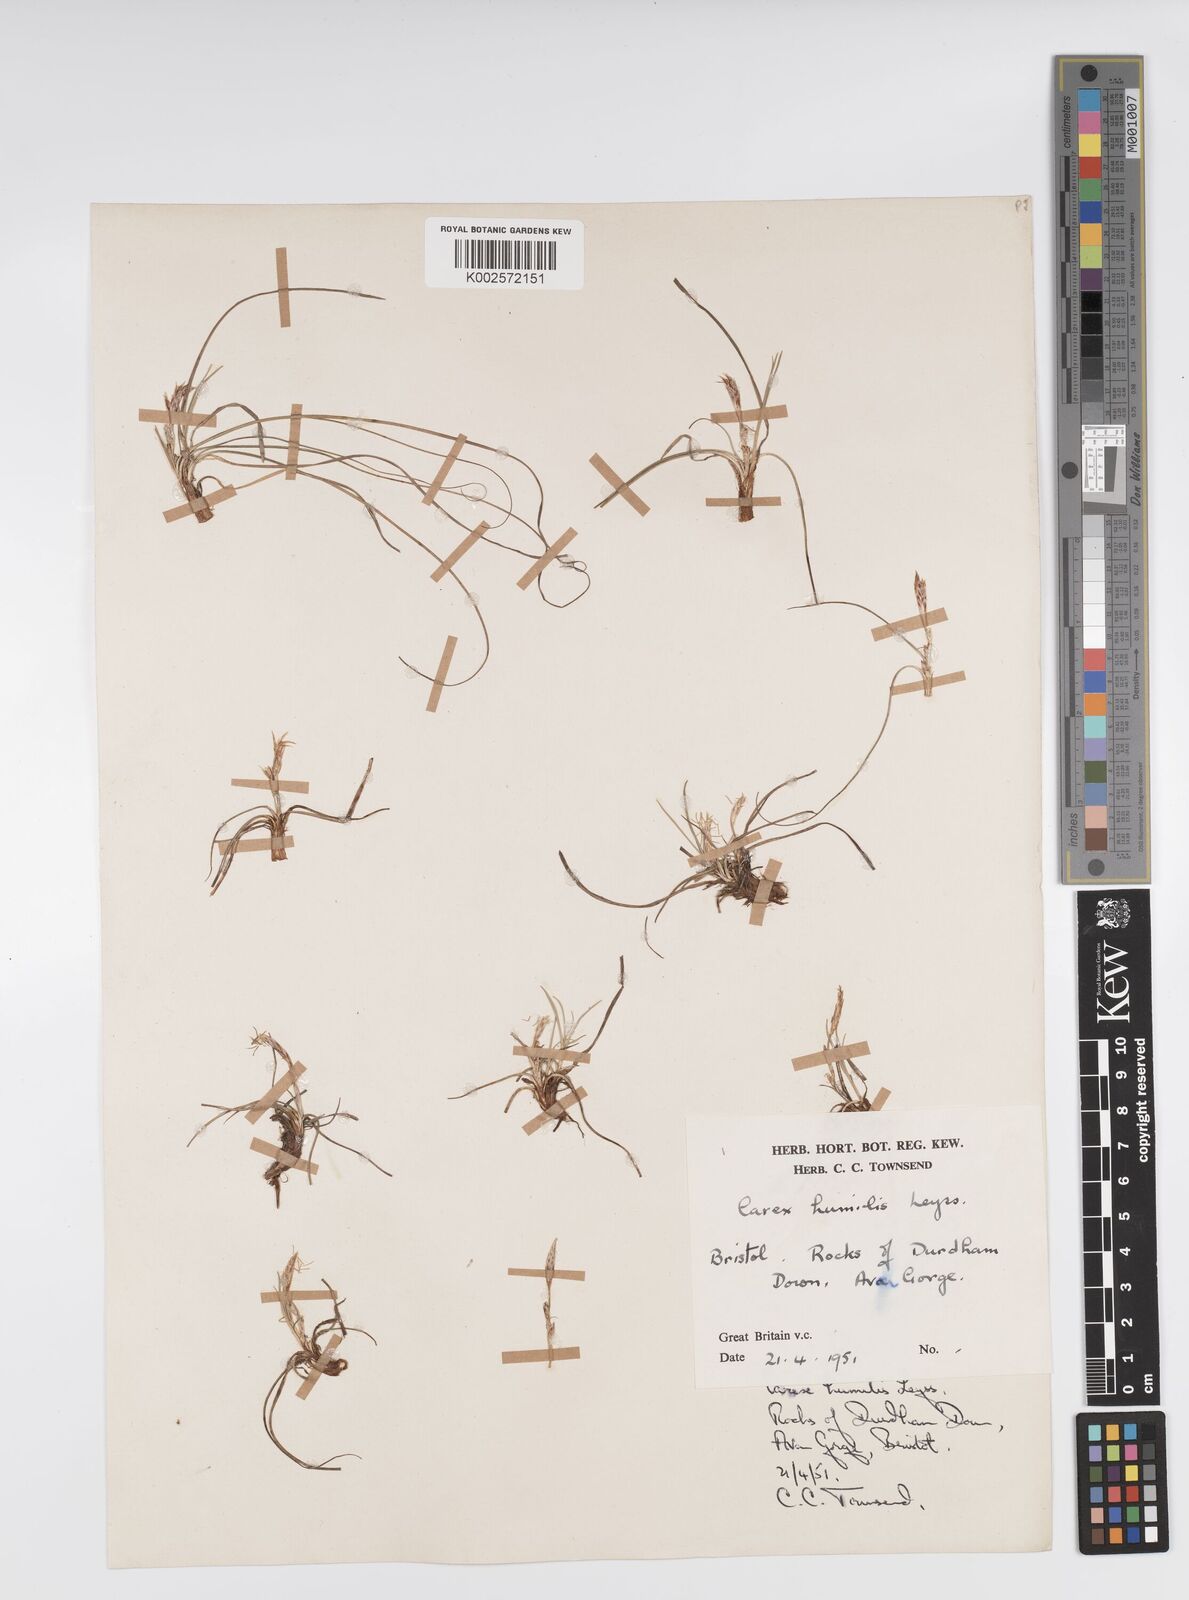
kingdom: Plantae
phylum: Tracheophyta
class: Liliopsida
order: Poales
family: Cyperaceae
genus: Carex
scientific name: Carex humilis
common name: Dwarf sedge
